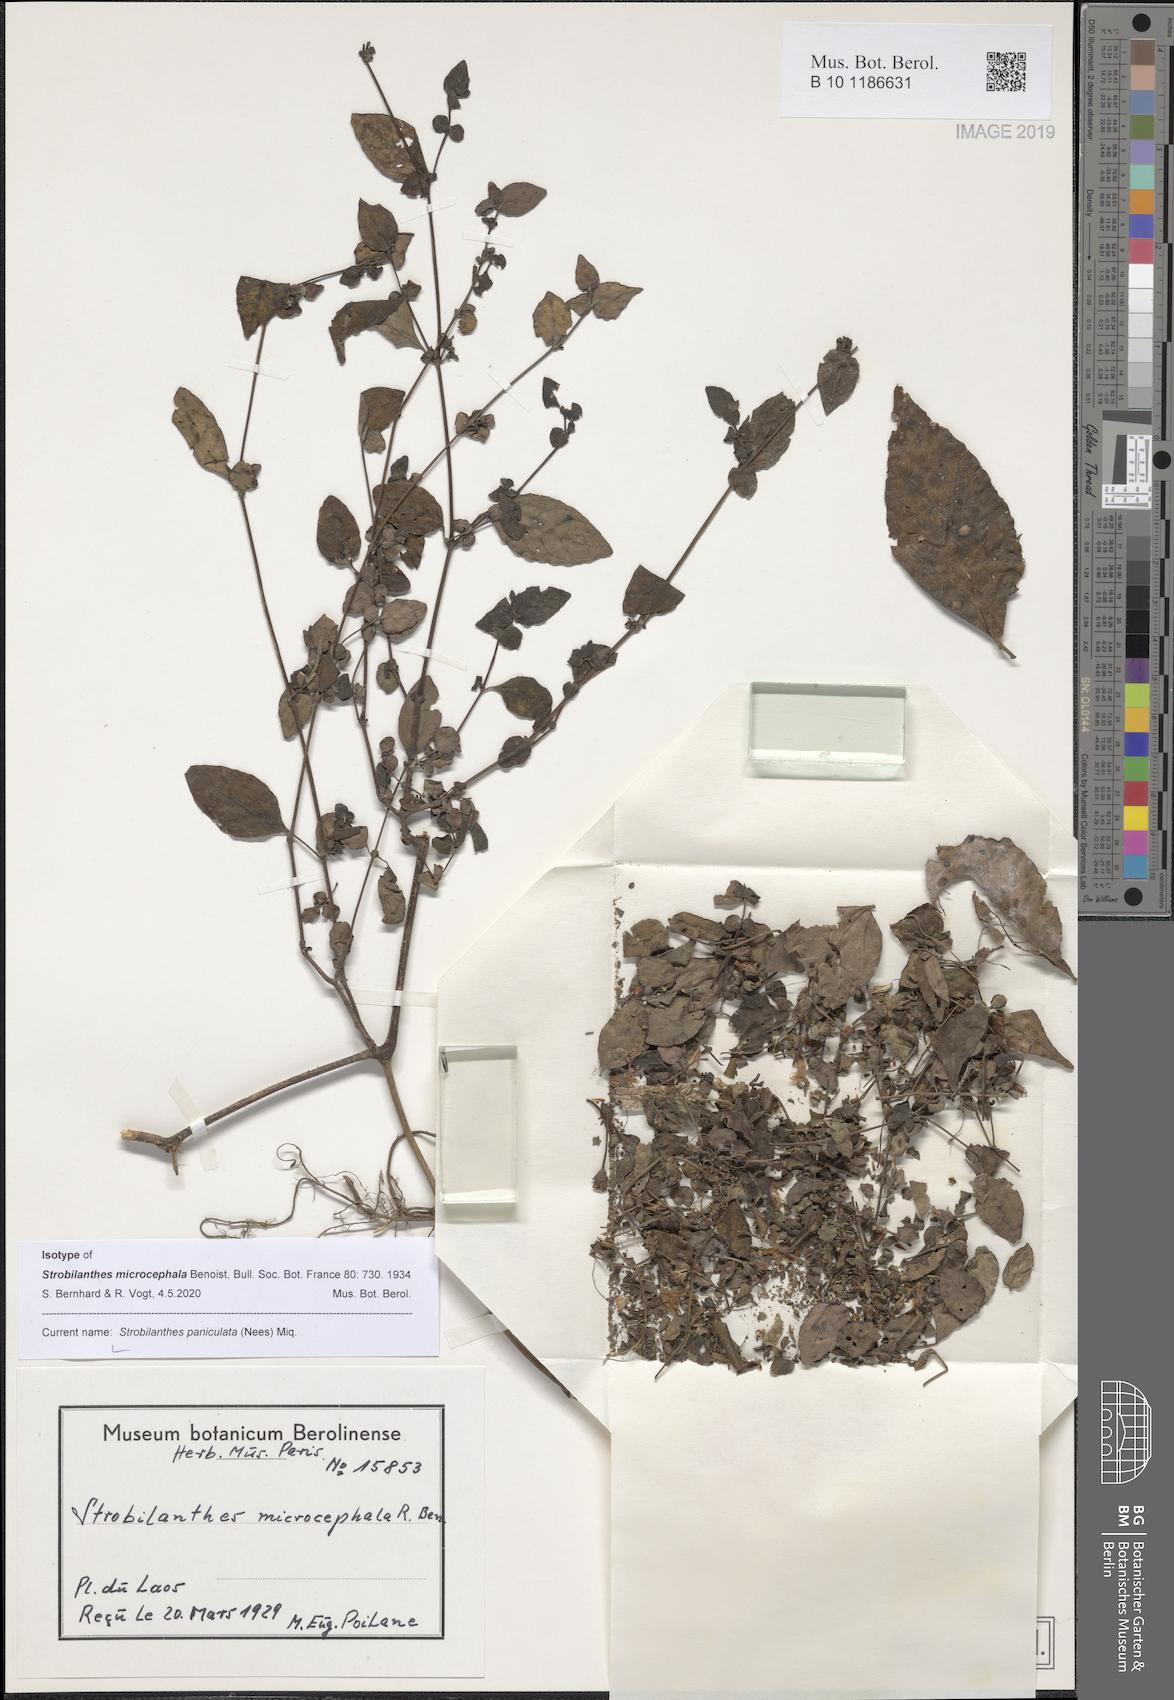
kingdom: Plantae
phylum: Tracheophyta
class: Magnoliopsida
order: Lamiales
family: Acanthaceae
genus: Strobilanthes
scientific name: Strobilanthes paniculata
